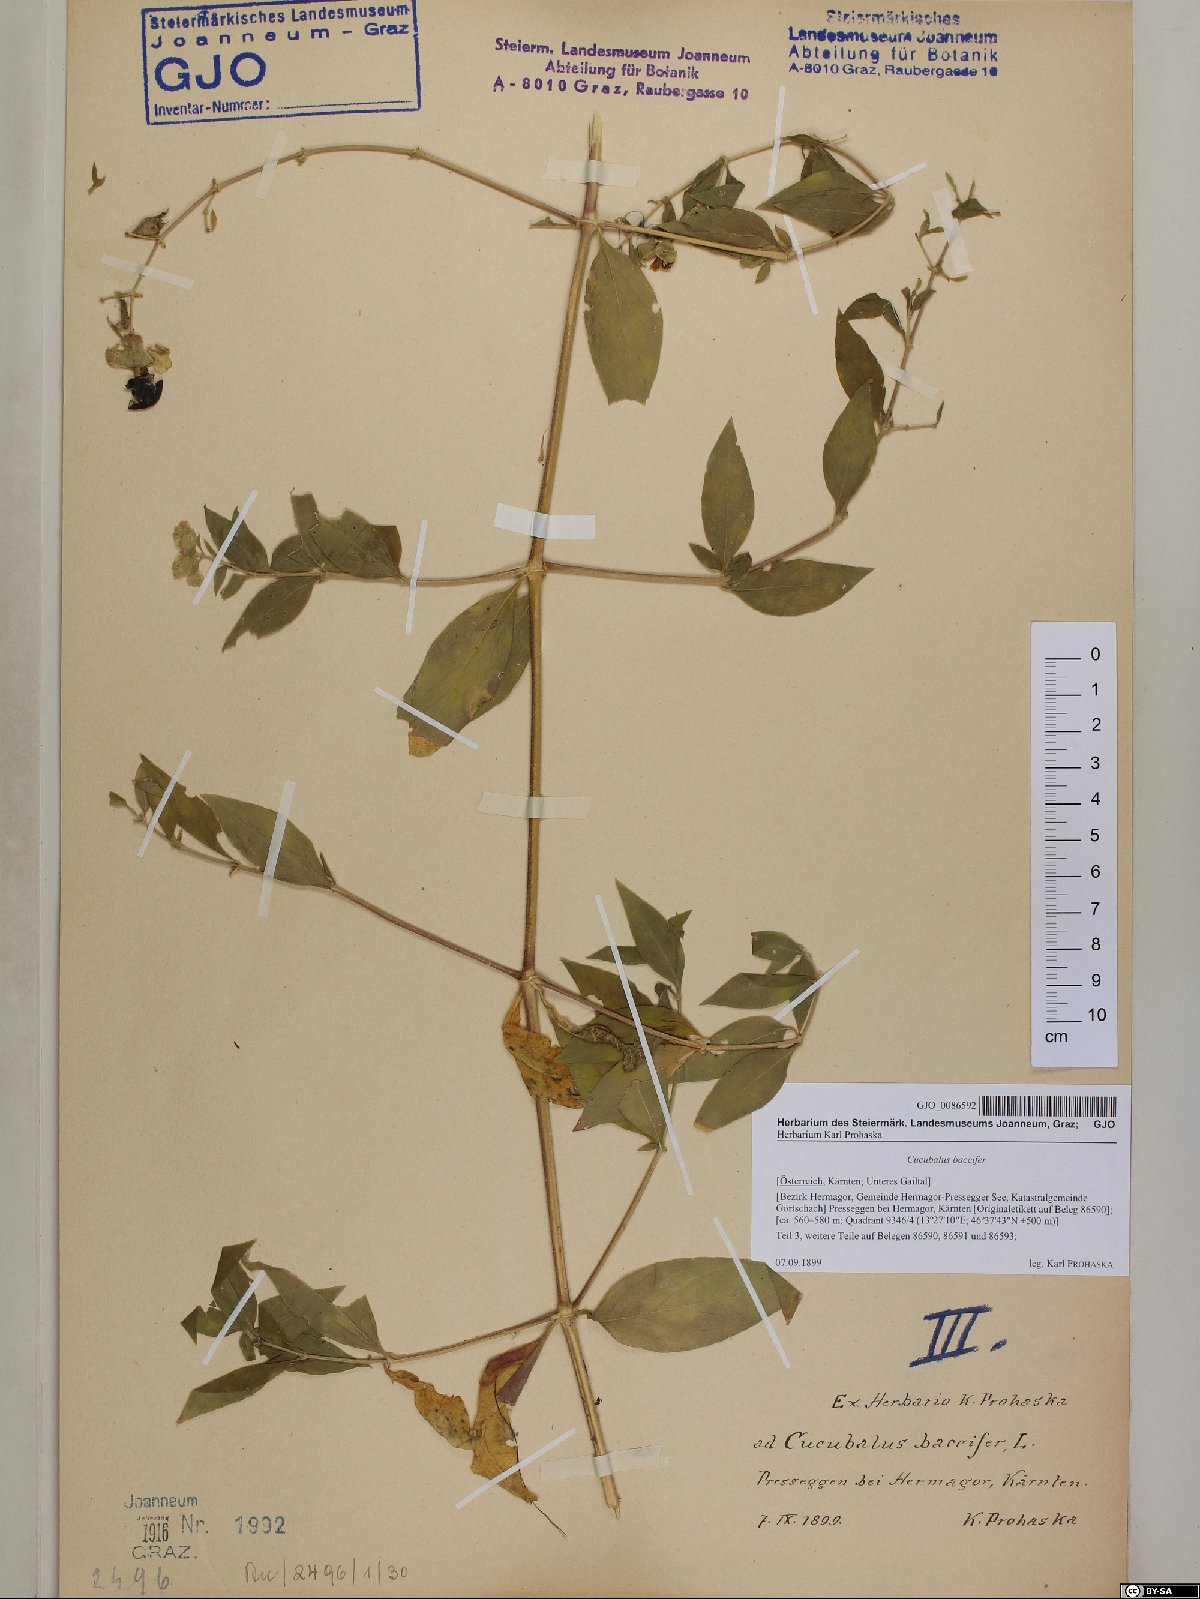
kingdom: Plantae
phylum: Tracheophyta
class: Magnoliopsida
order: Caryophyllales
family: Caryophyllaceae
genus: Silene
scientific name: Silene baccifera
